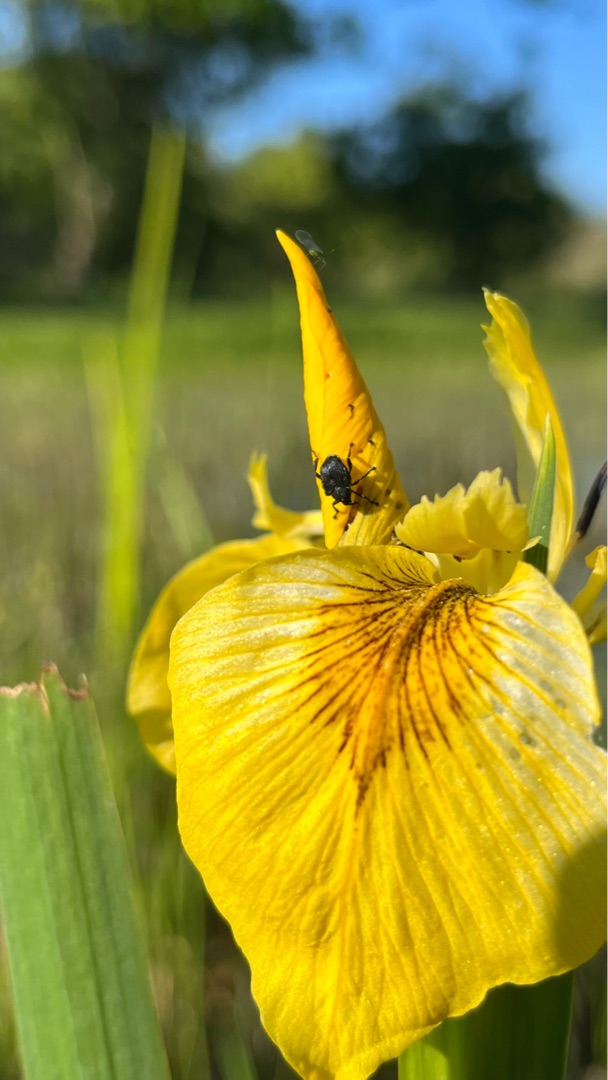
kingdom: Animalia
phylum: Arthropoda
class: Insecta
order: Coleoptera
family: Curculionidae
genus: Mononychus
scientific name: Mononychus punctumalbum
